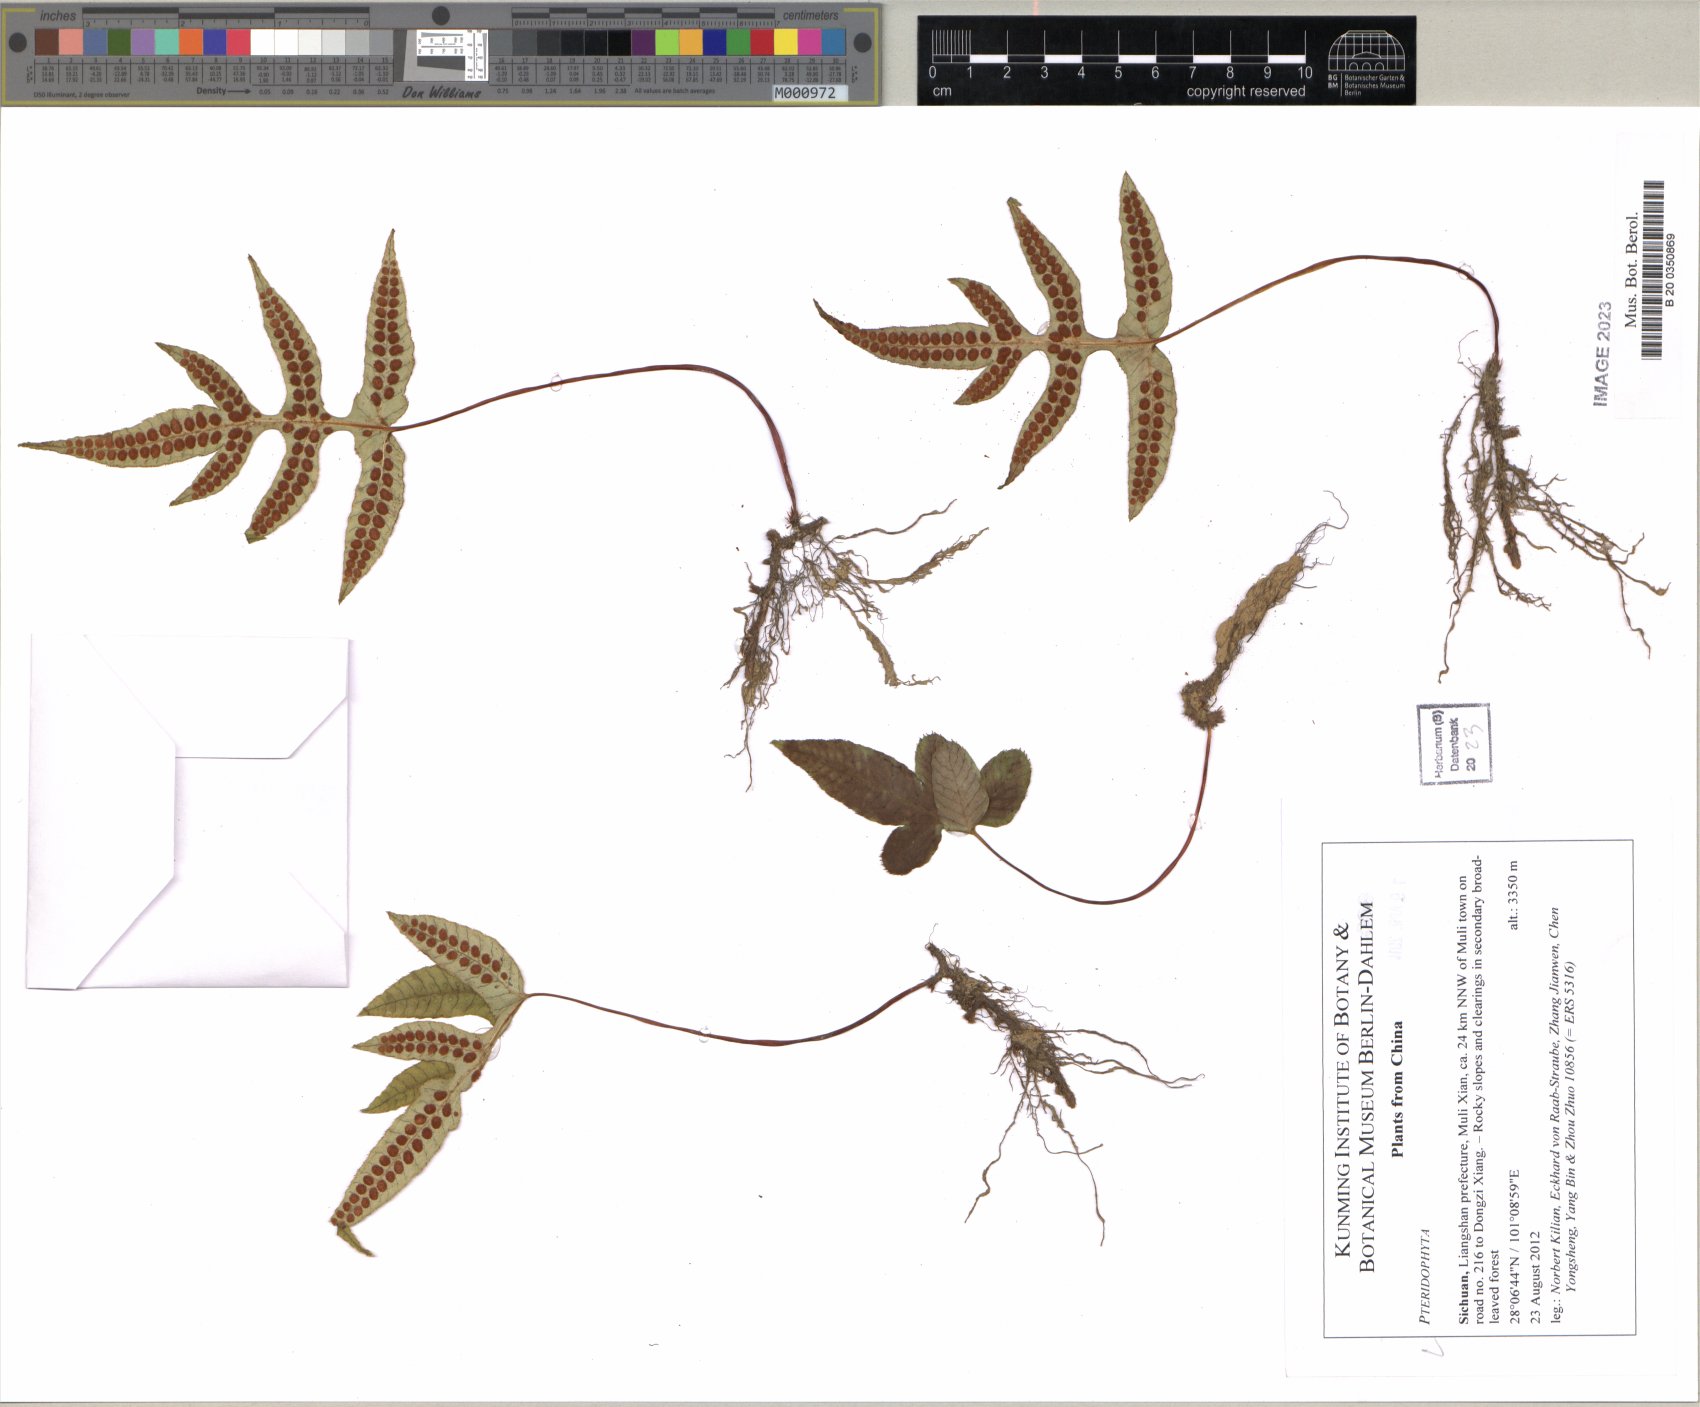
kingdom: Plantae
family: Pteridophyta
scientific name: Pteridophyta
